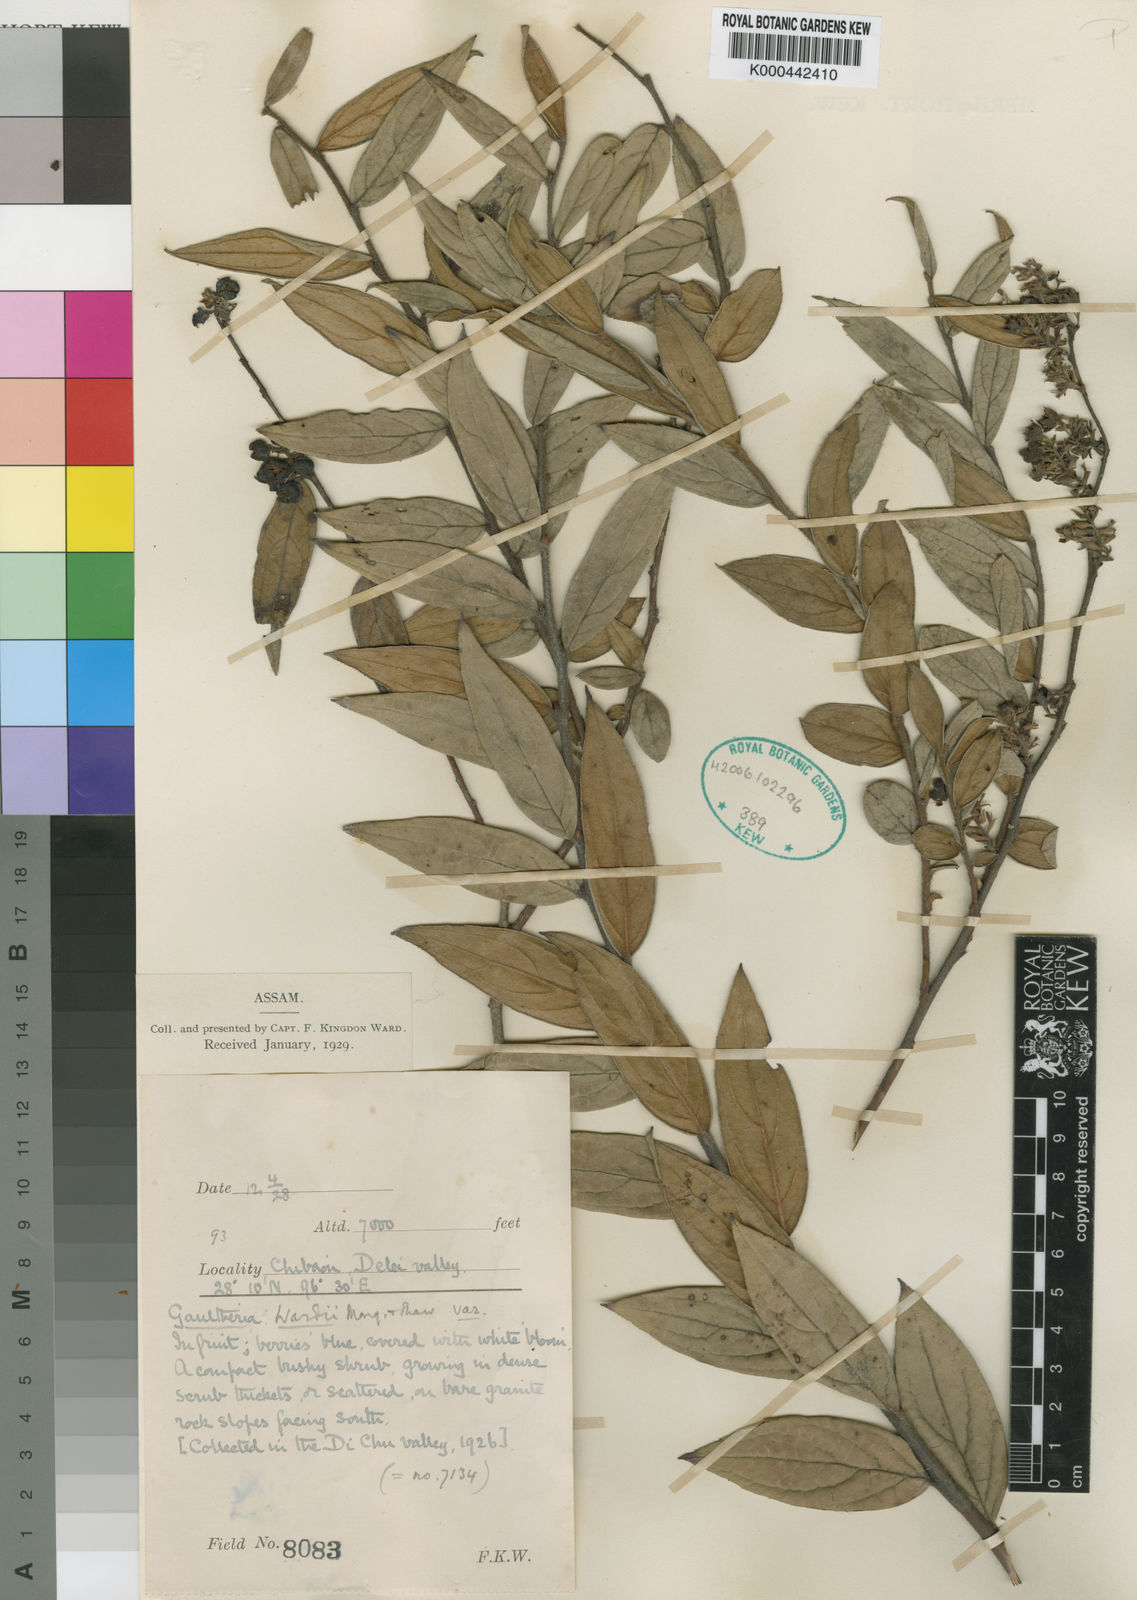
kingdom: Plantae
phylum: Tracheophyta
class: Magnoliopsida
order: Ericales
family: Ericaceae
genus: Gaultheria
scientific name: Gaultheria wardii
